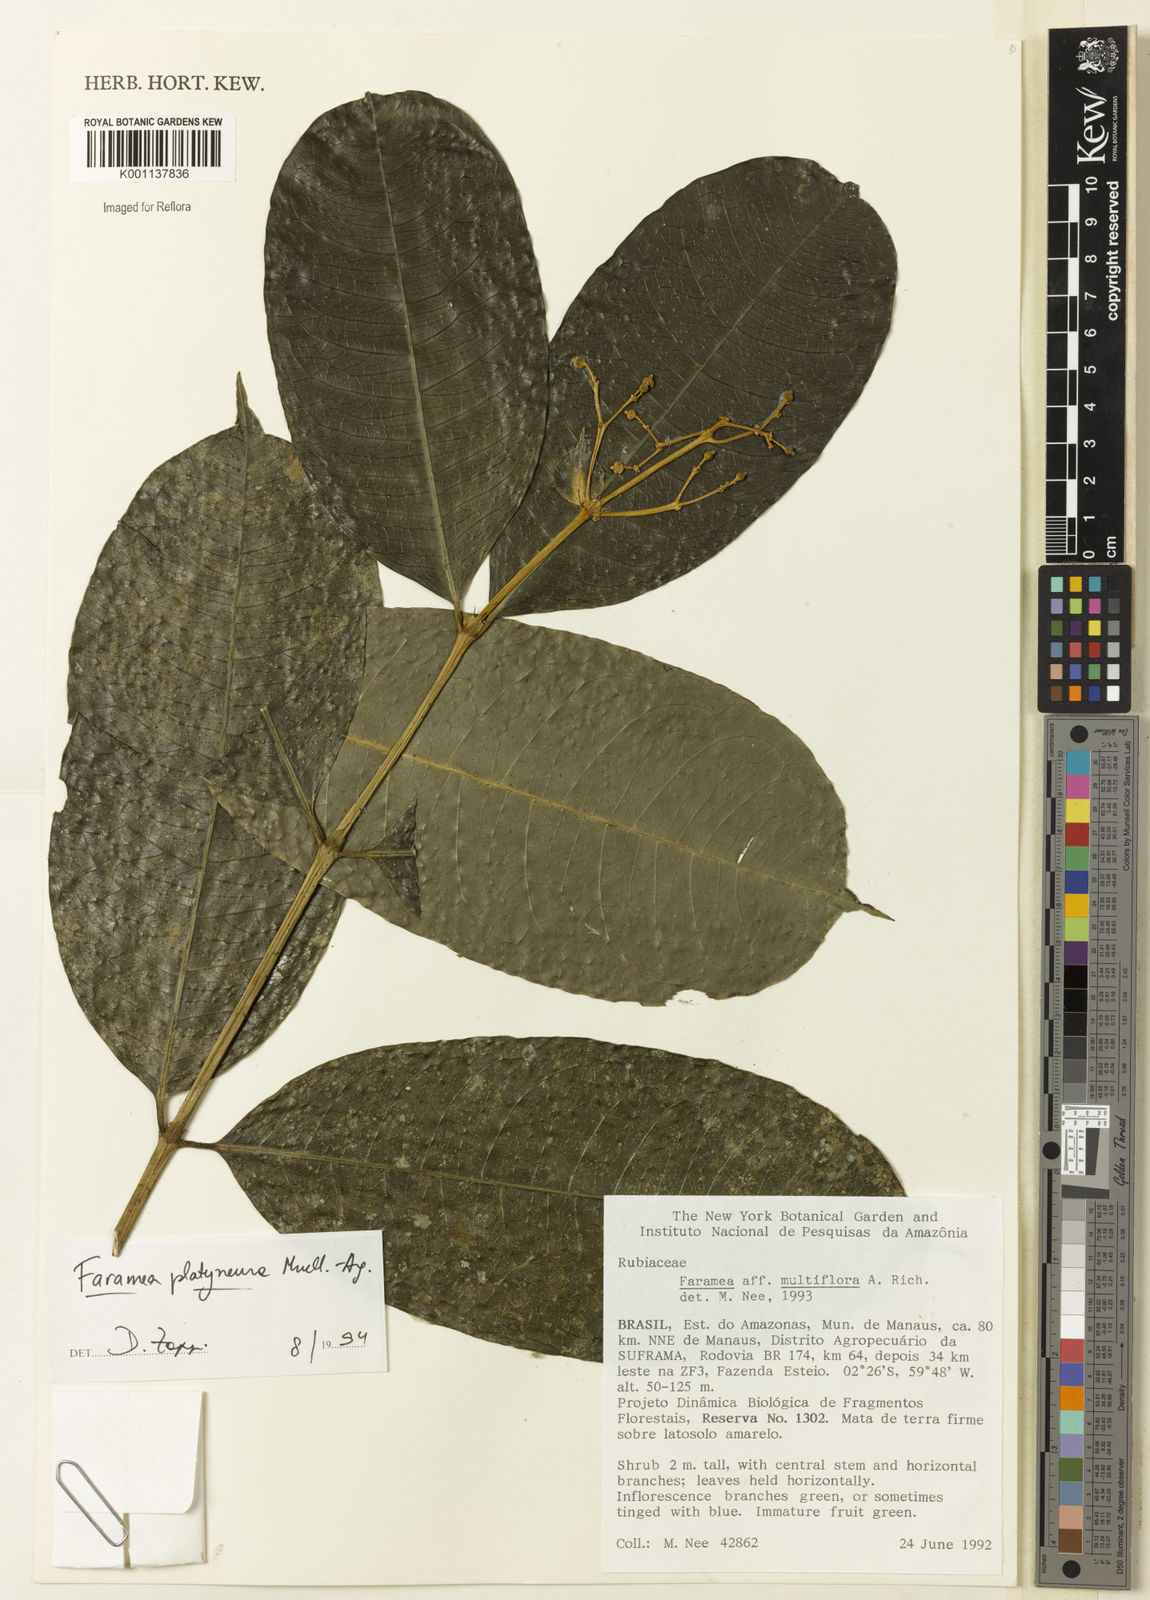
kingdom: Plantae
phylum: Tracheophyta
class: Magnoliopsida
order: Gentianales
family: Rubiaceae
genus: Faramea
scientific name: Faramea
